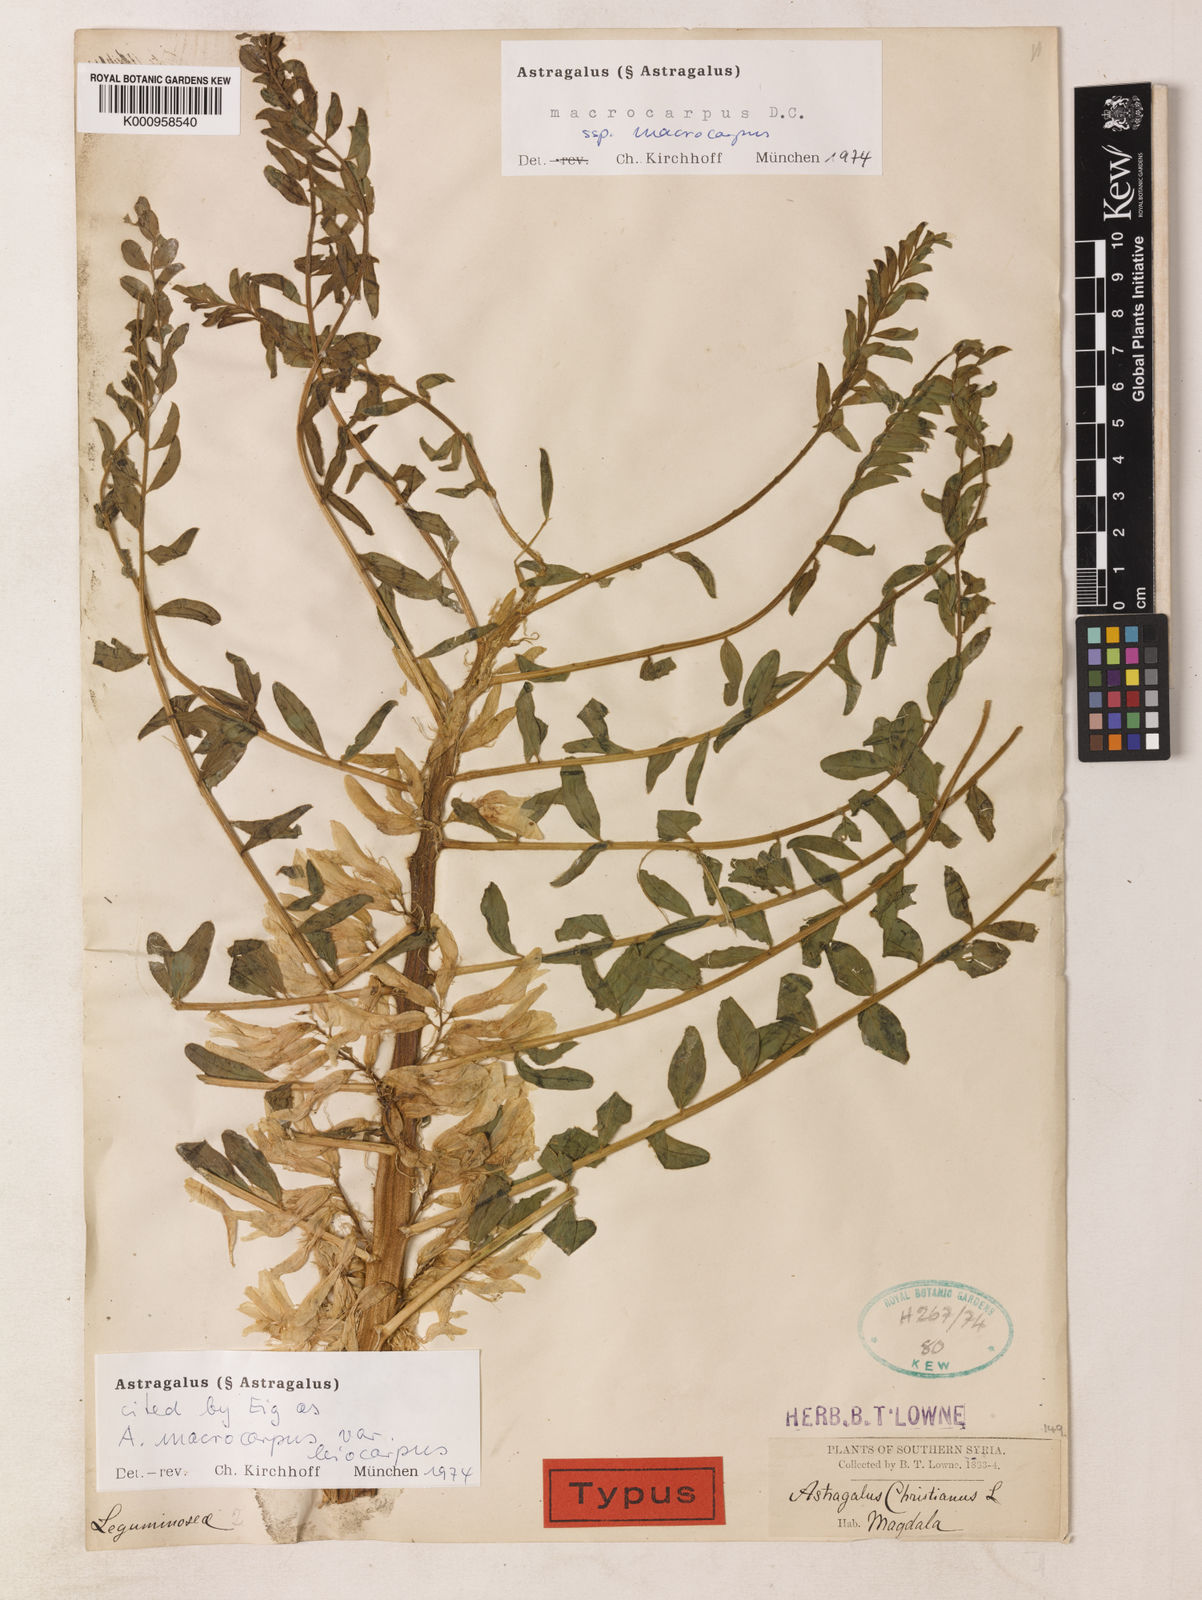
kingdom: Plantae
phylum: Tracheophyta
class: Magnoliopsida
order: Fabales
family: Fabaceae
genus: Astragalus
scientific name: Astragalus macrocarpus
